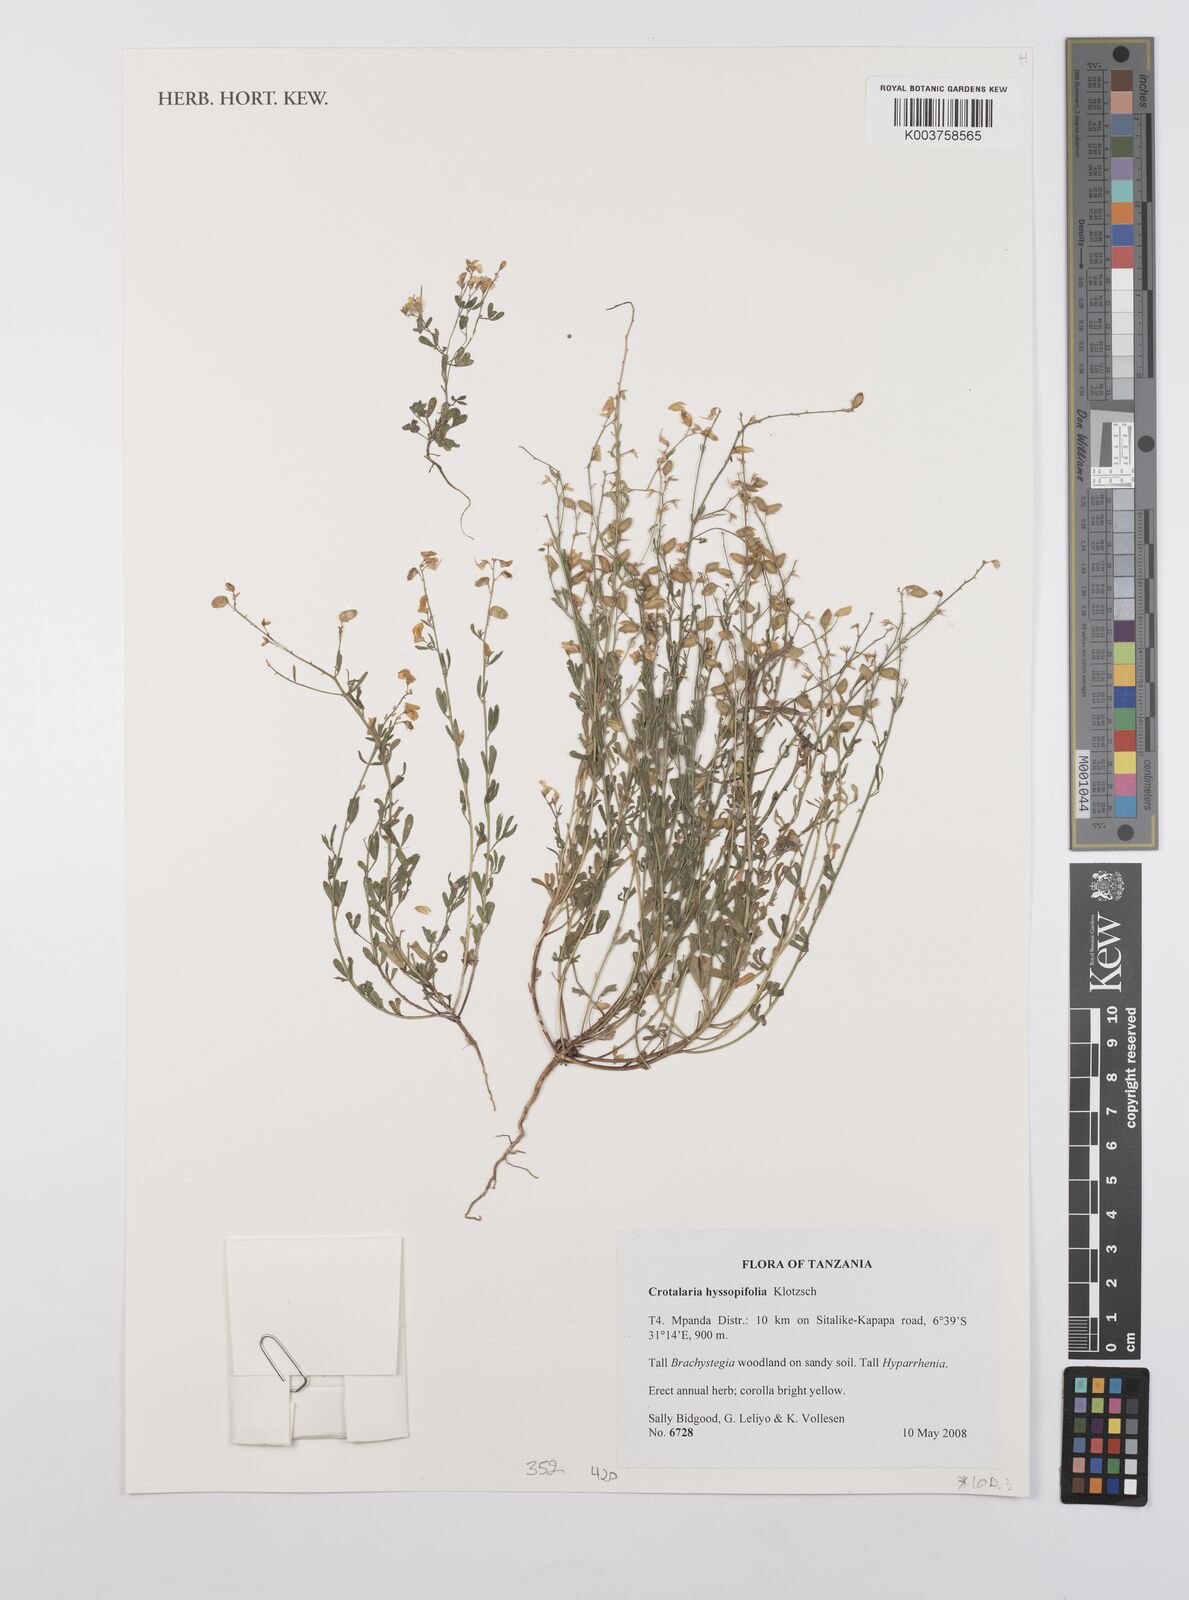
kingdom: Plantae
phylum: Tracheophyta
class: Magnoliopsida
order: Fabales
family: Fabaceae
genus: Crotalaria
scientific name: Crotalaria hyssopifolia
